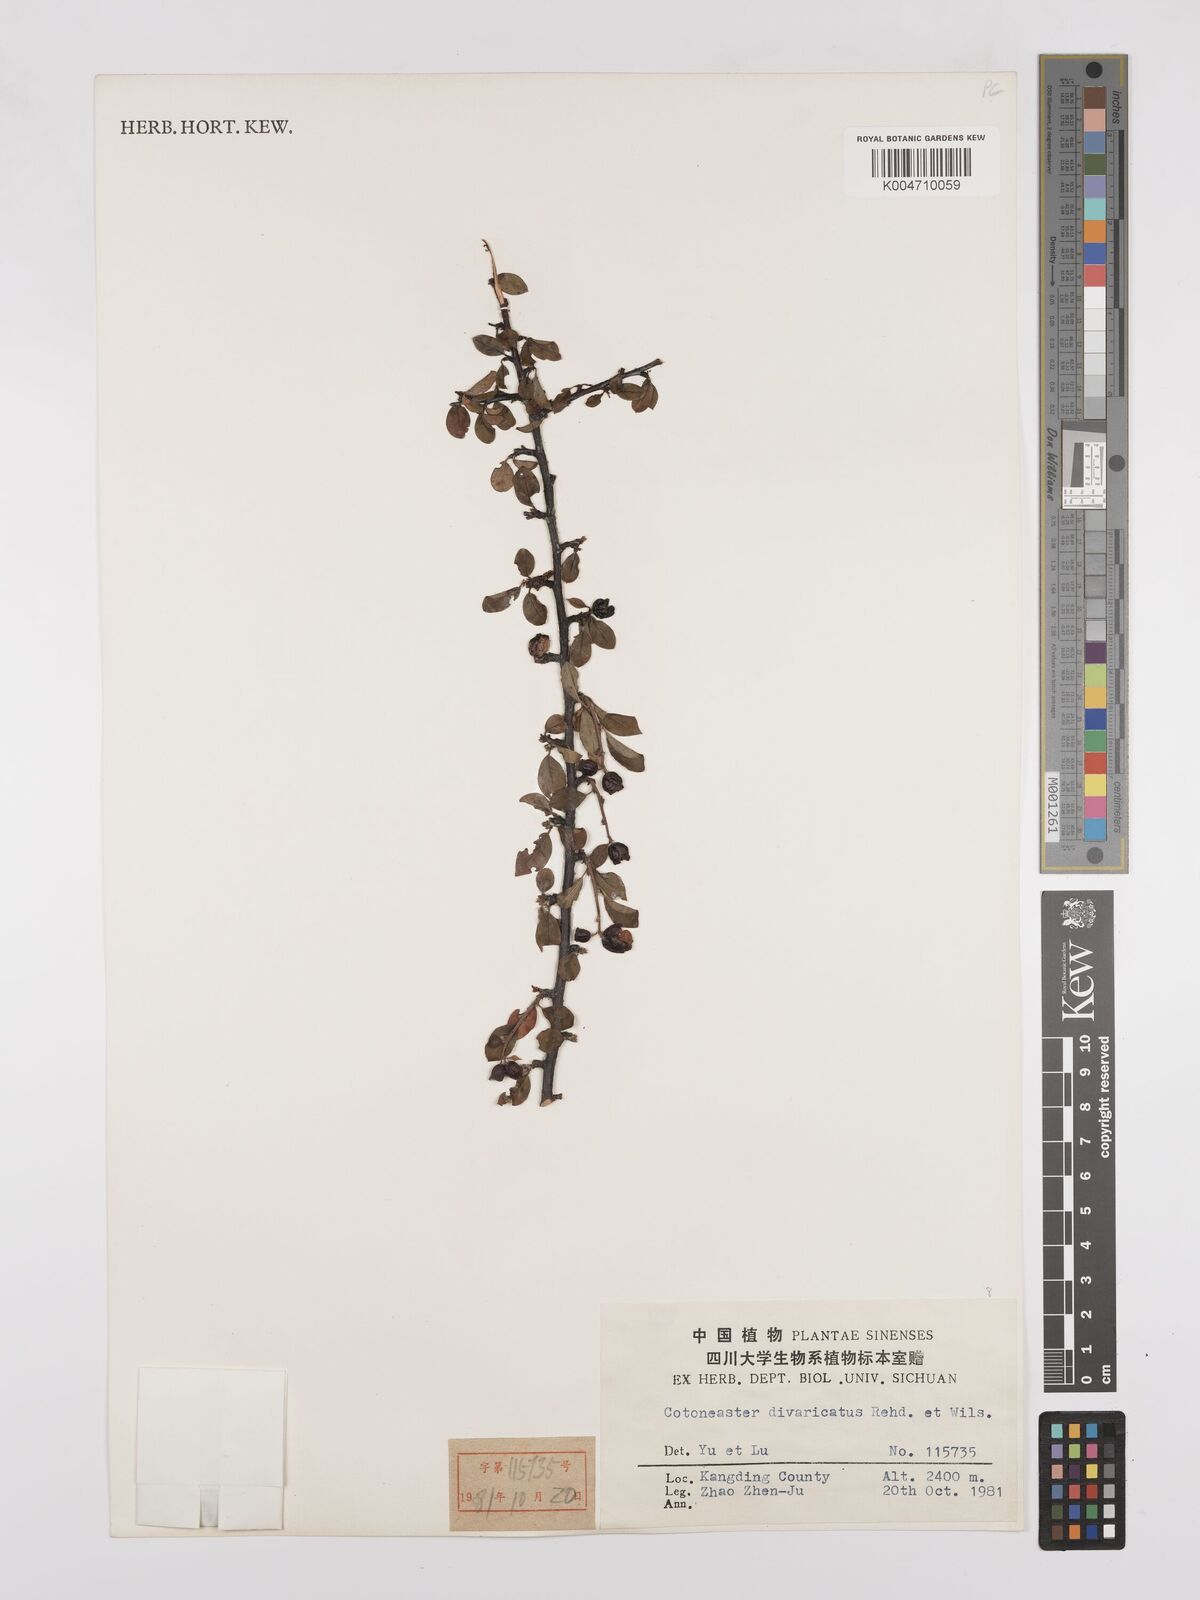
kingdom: Plantae
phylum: Tracheophyta
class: Magnoliopsida
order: Rosales
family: Rosaceae
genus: Cotoneaster
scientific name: Cotoneaster divaricatus
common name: Spreading cotoneaster
